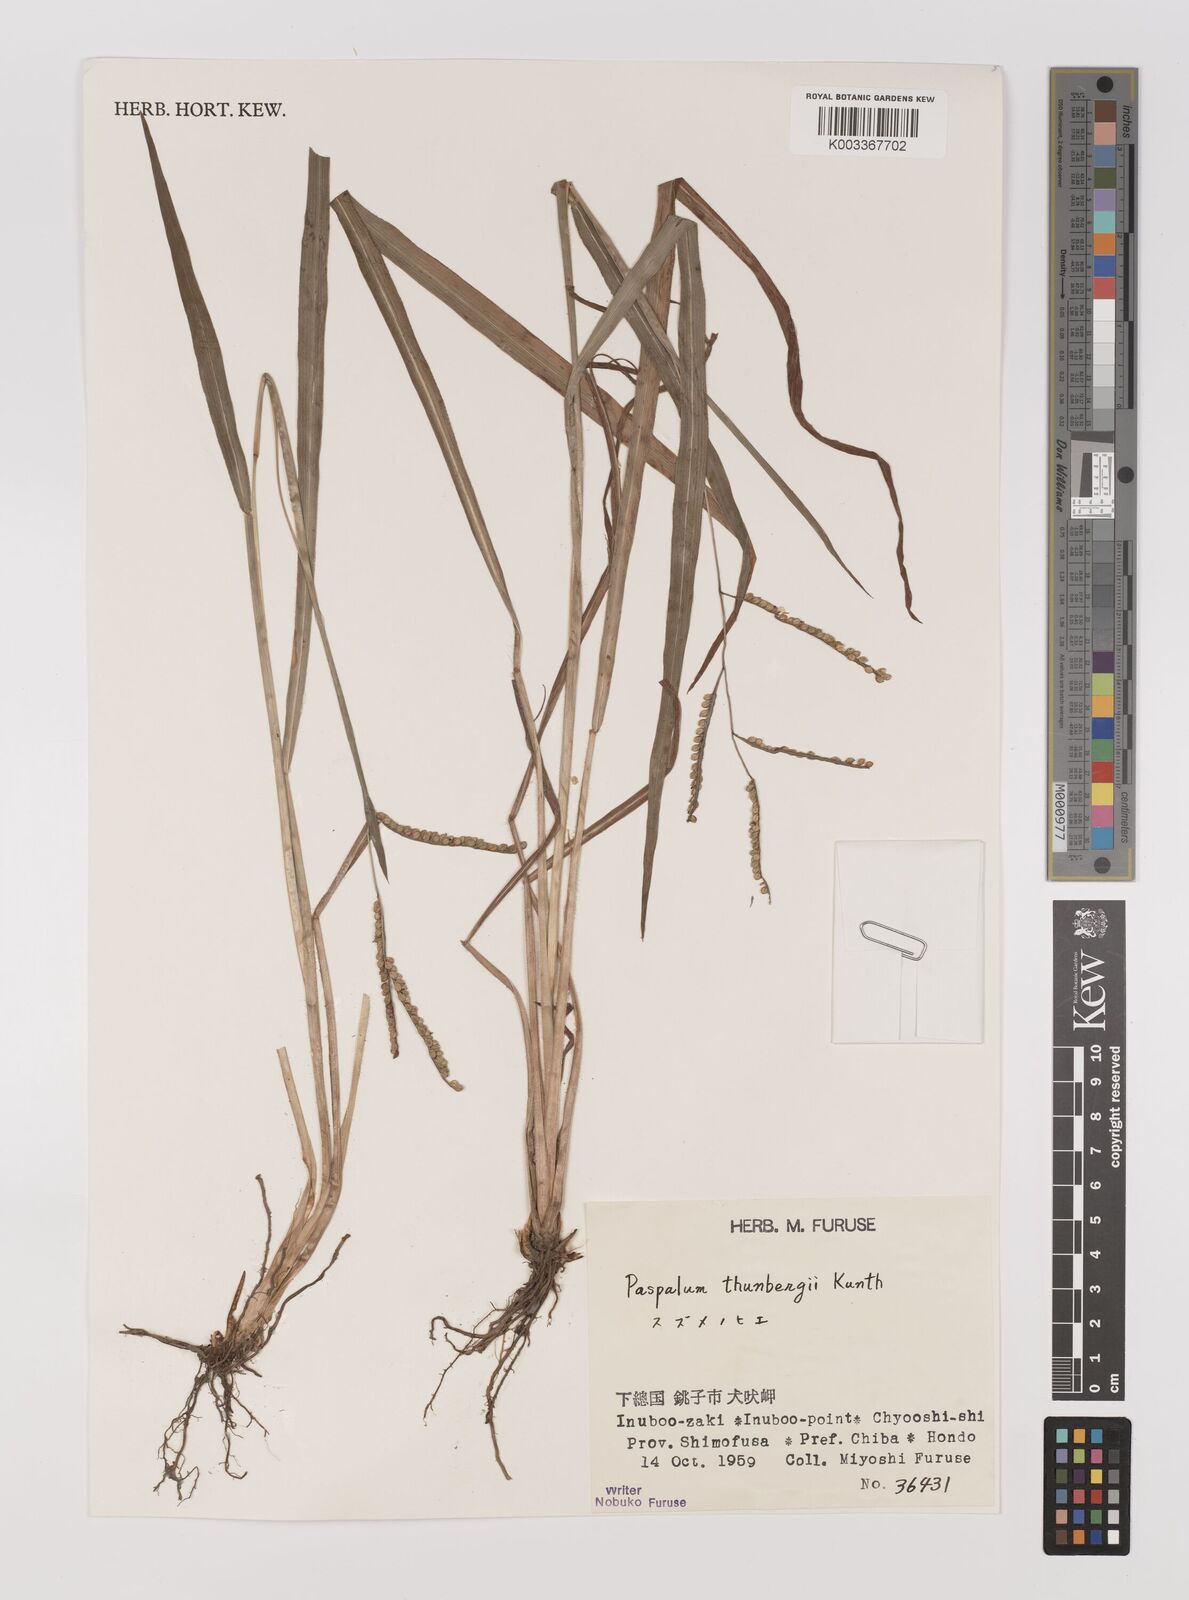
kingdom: Plantae
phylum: Tracheophyta
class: Liliopsida
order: Poales
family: Poaceae
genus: Panicum
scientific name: Panicum
